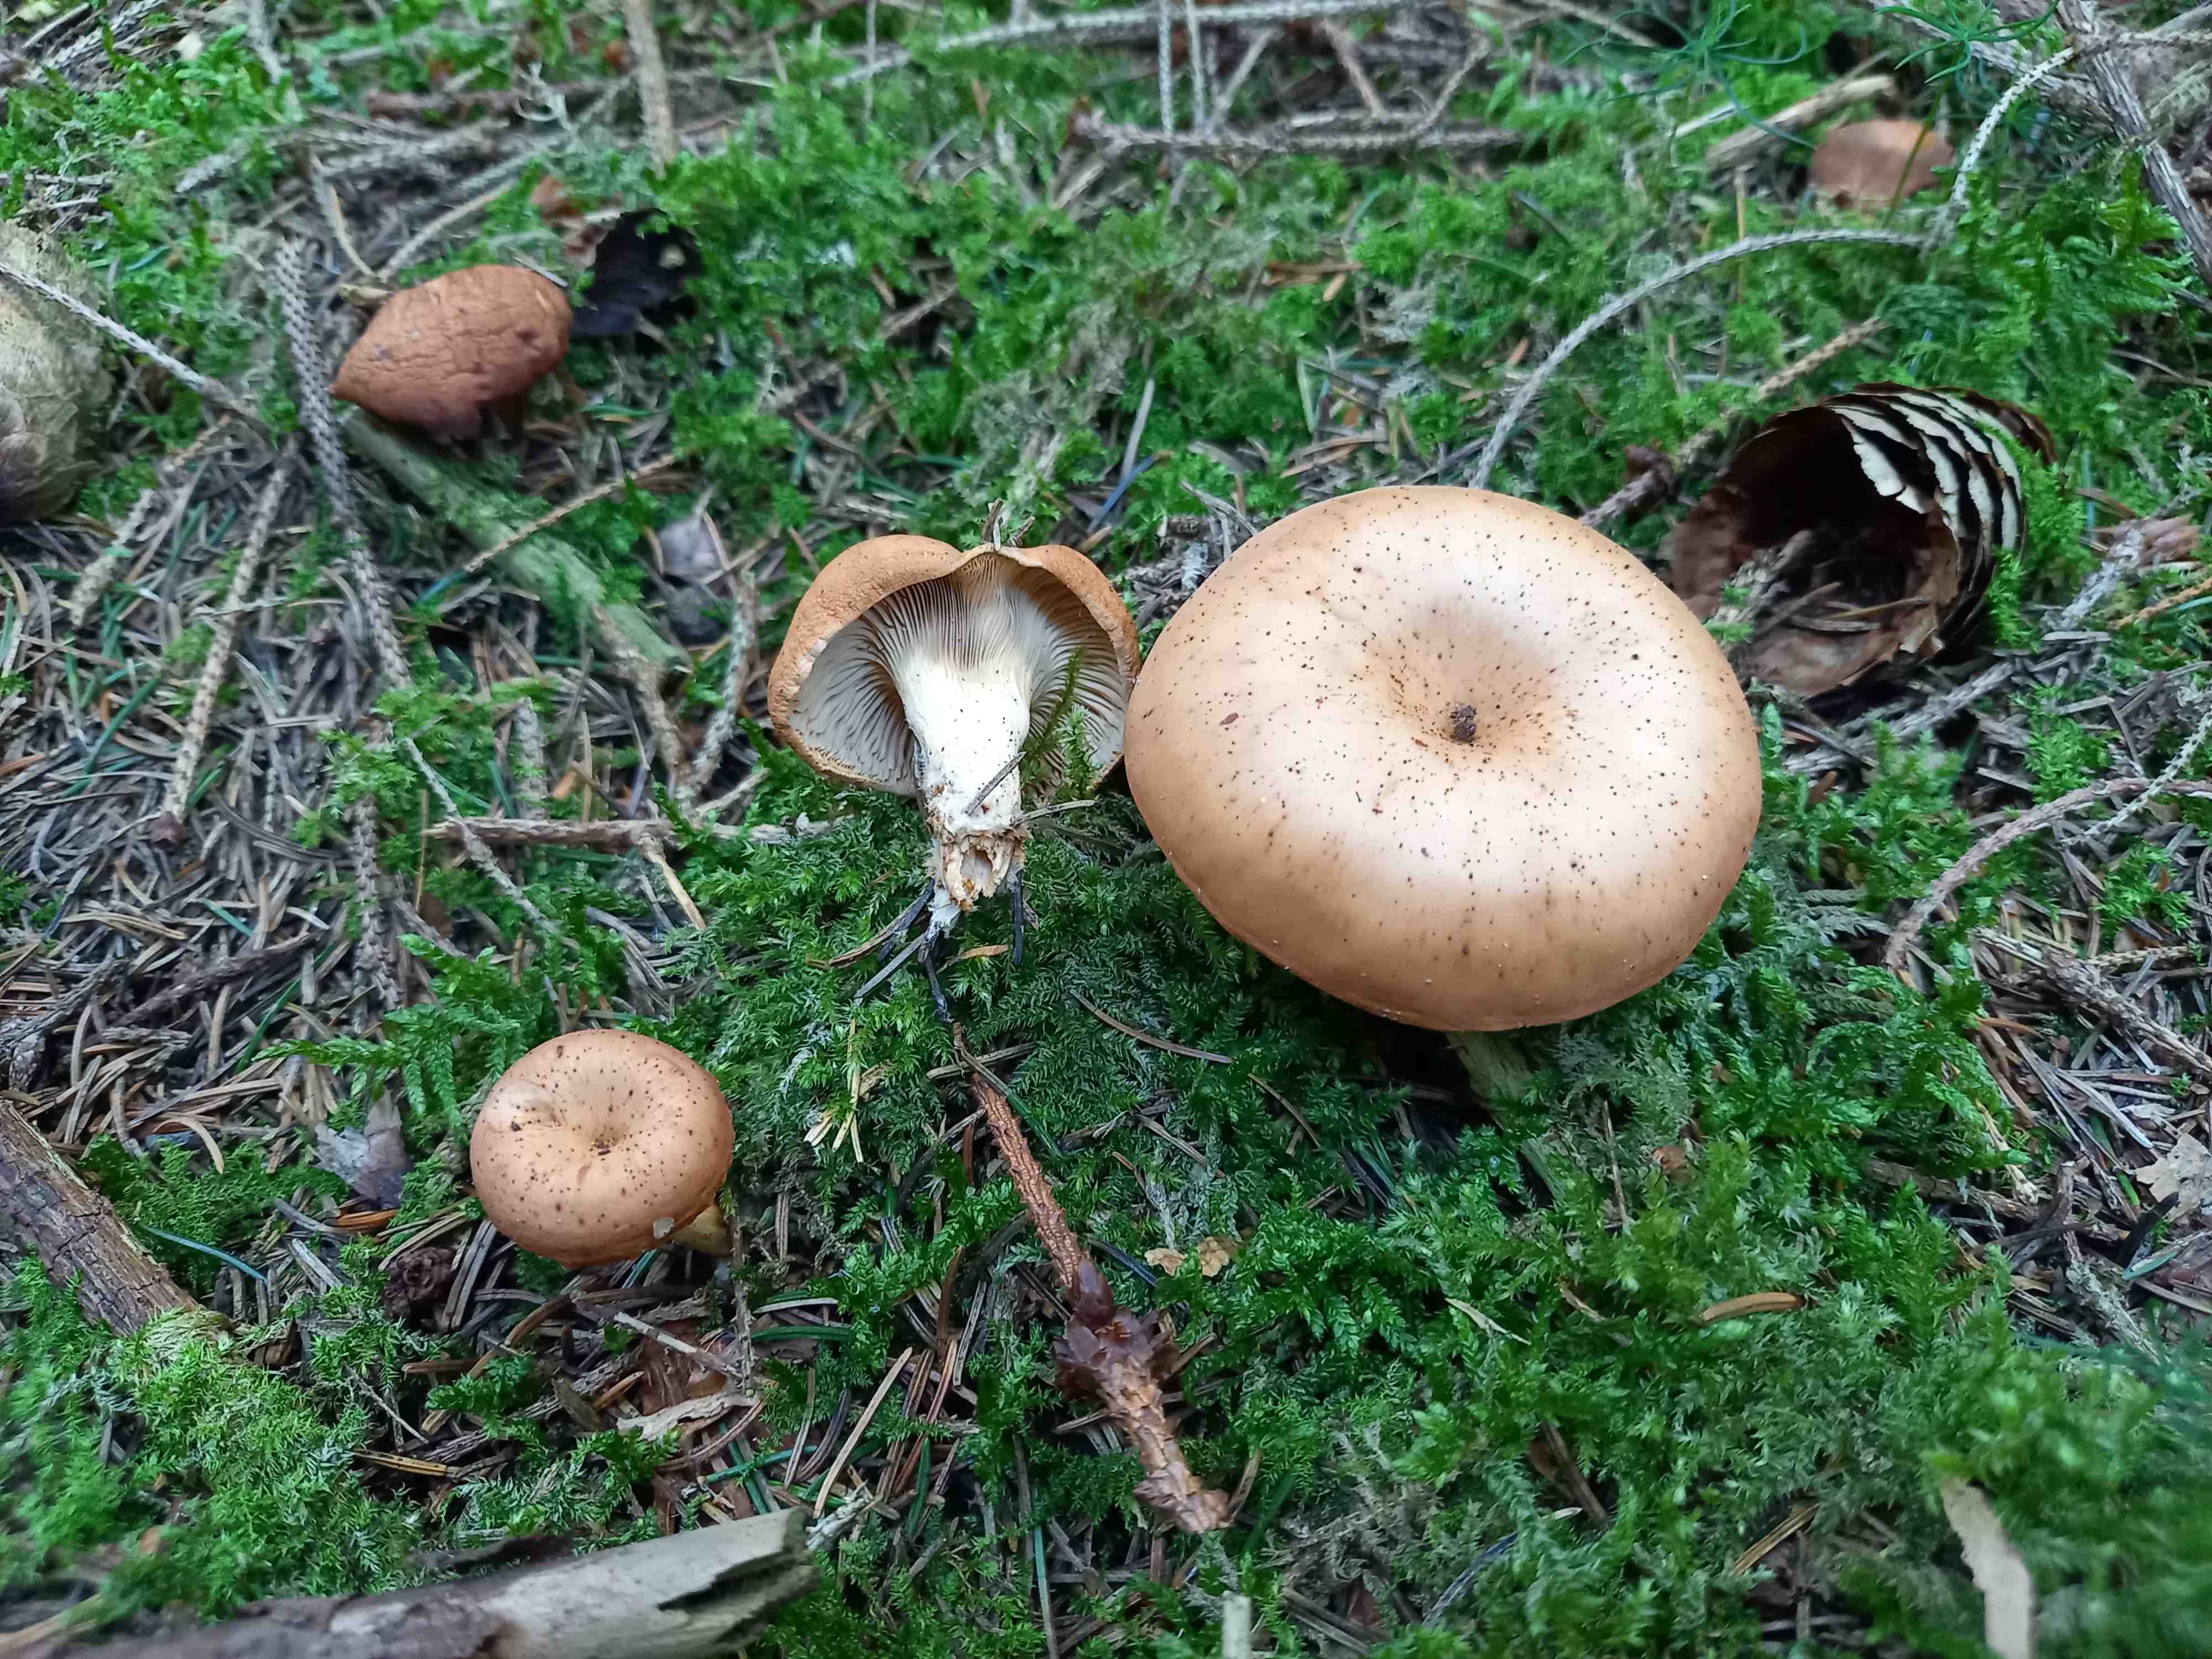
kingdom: Fungi
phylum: Basidiomycota
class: Agaricomycetes
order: Agaricales
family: Tricholomataceae
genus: Paralepista
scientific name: Paralepista
